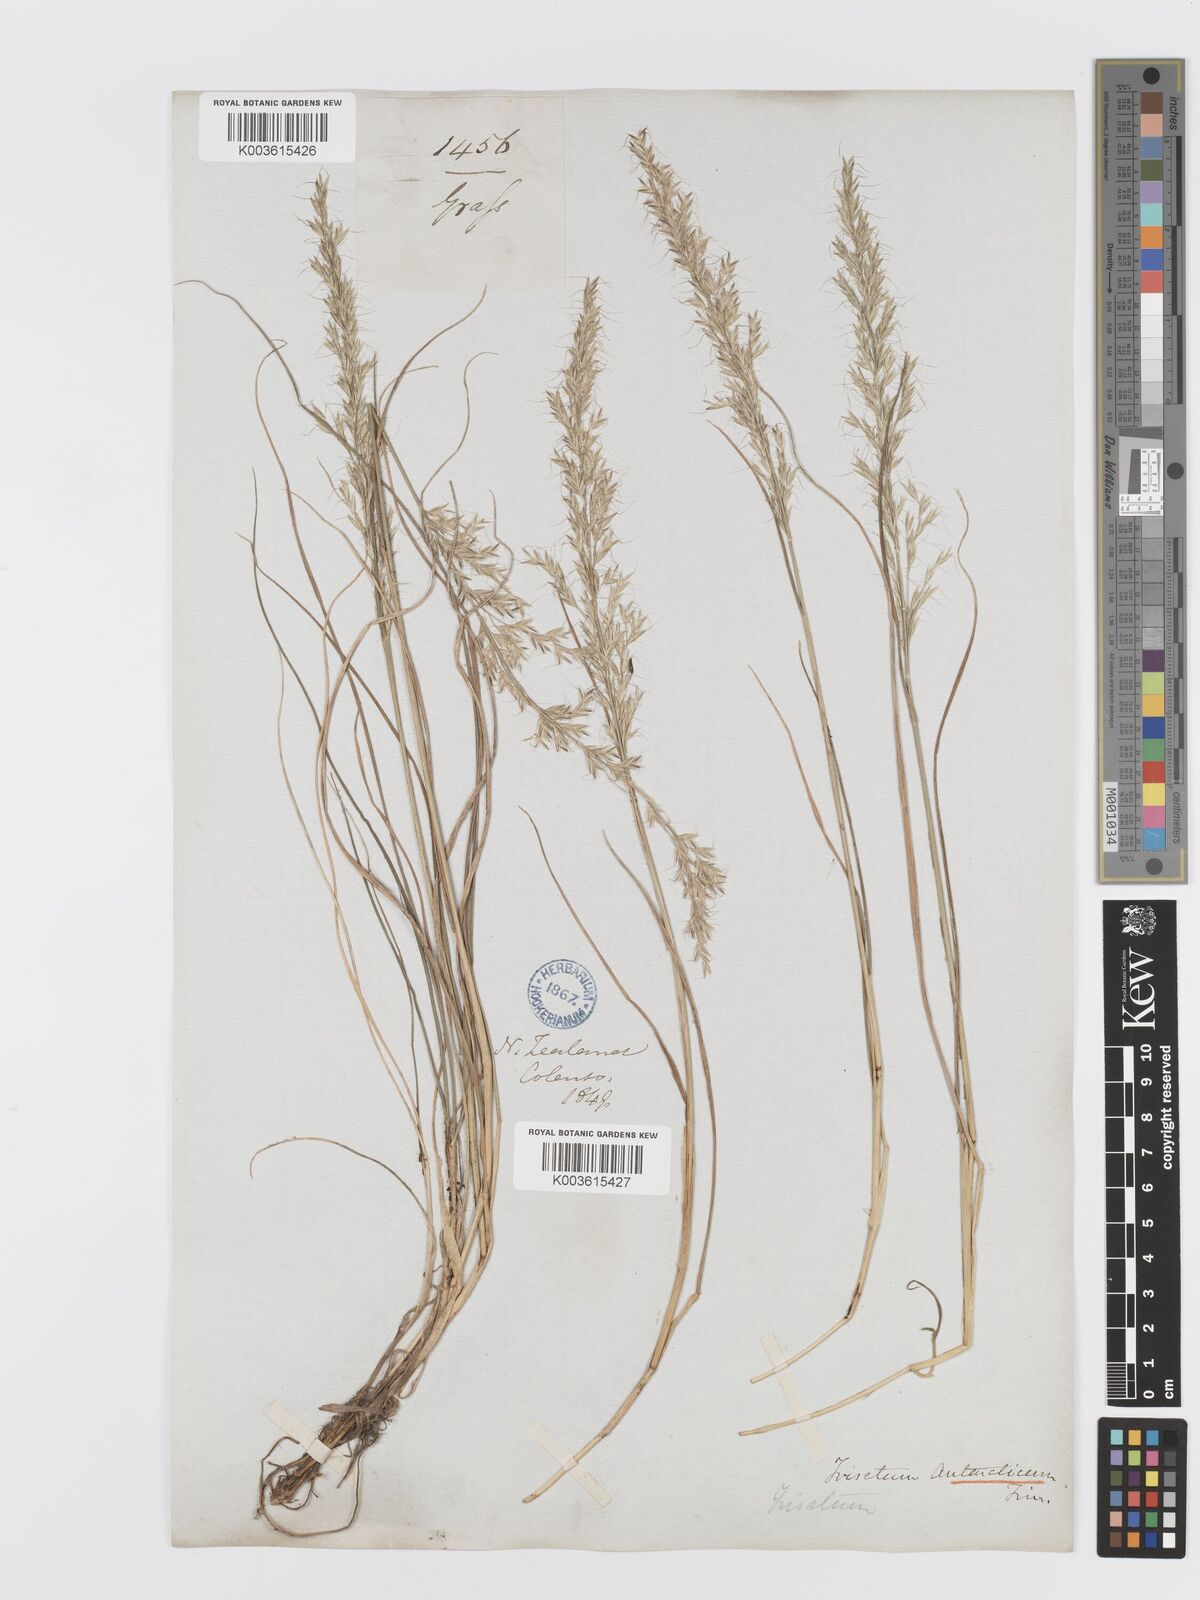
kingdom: Plantae
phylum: Tracheophyta
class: Liliopsida
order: Poales
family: Poaceae
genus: Koeleria
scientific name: Koeleria antarctica
